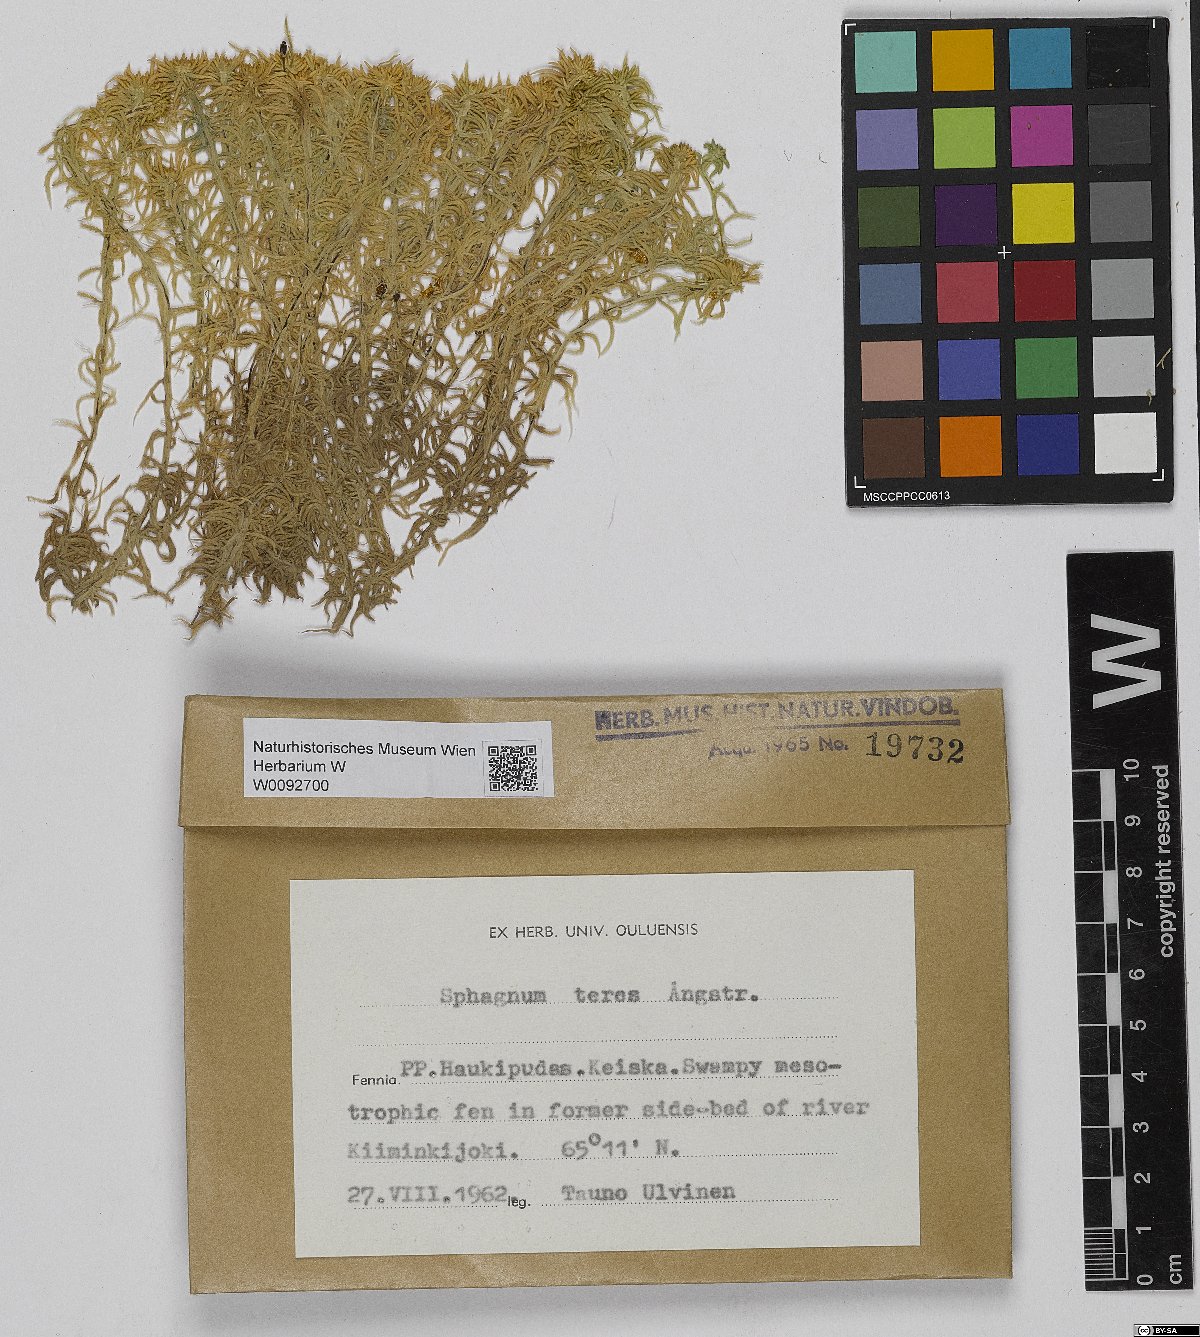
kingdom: Plantae
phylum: Bryophyta
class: Sphagnopsida
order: Sphagnales
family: Sphagnaceae
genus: Sphagnum
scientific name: Sphagnum teres
